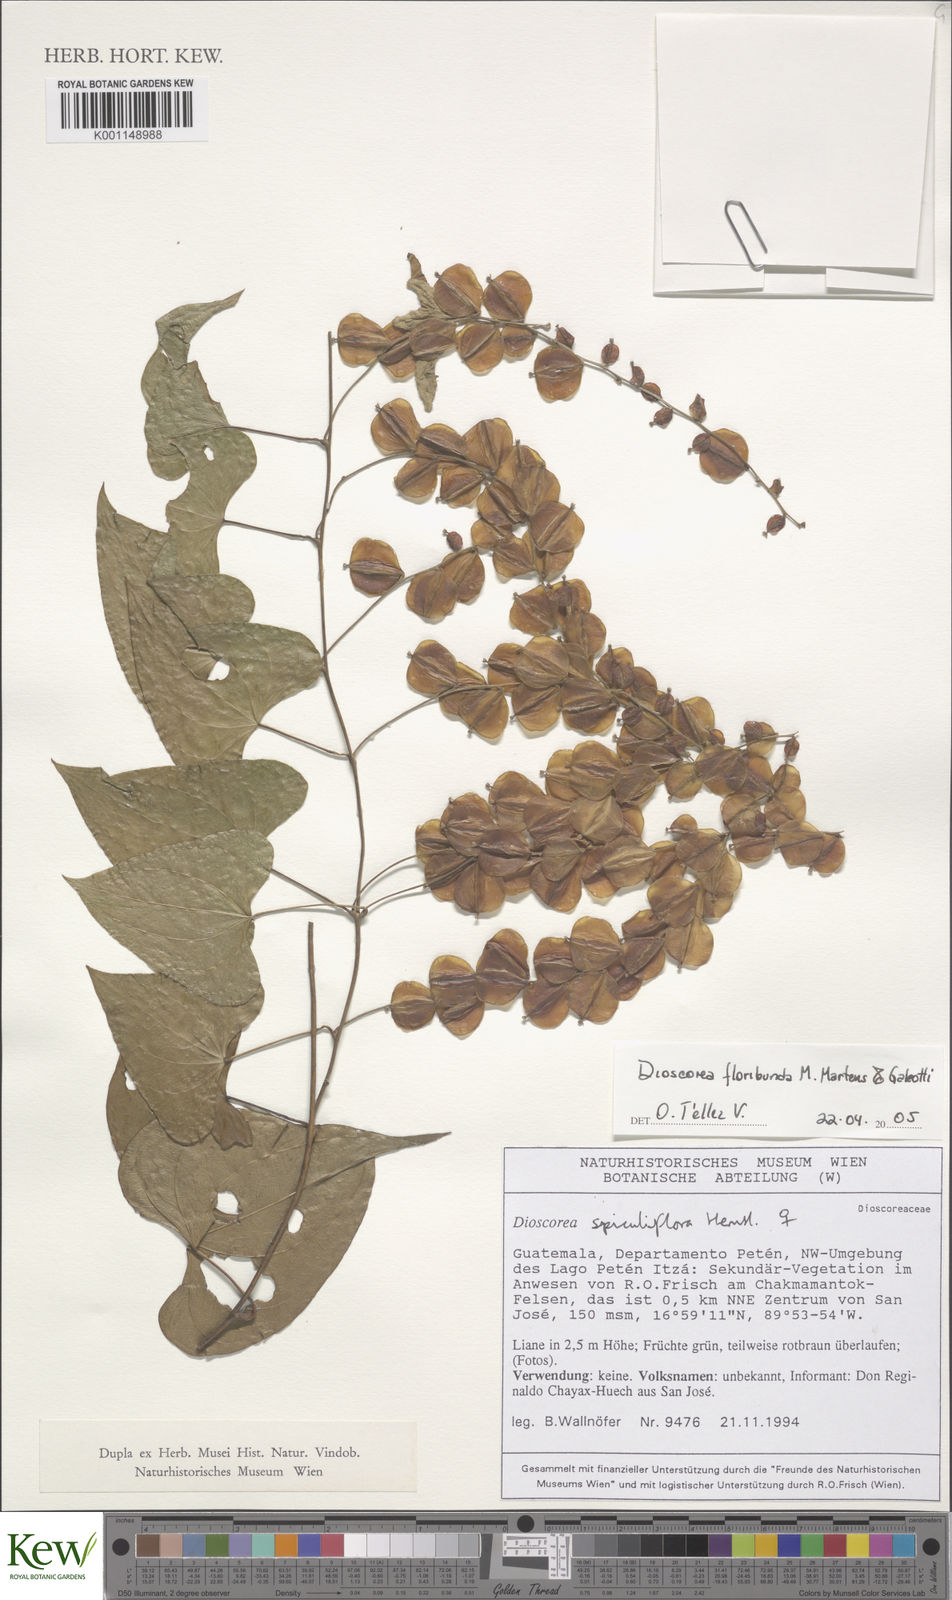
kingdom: Plantae
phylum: Tracheophyta
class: Liliopsida
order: Dioscoreales
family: Dioscoreaceae
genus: Dioscorea
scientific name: Dioscorea floribunda
